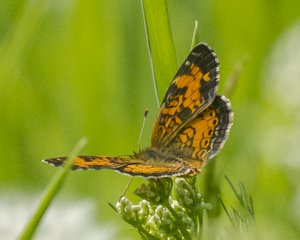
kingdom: Animalia
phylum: Arthropoda
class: Insecta
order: Lepidoptera
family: Nymphalidae
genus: Phyciodes
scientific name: Phyciodes tharos
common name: Northern Crescent
